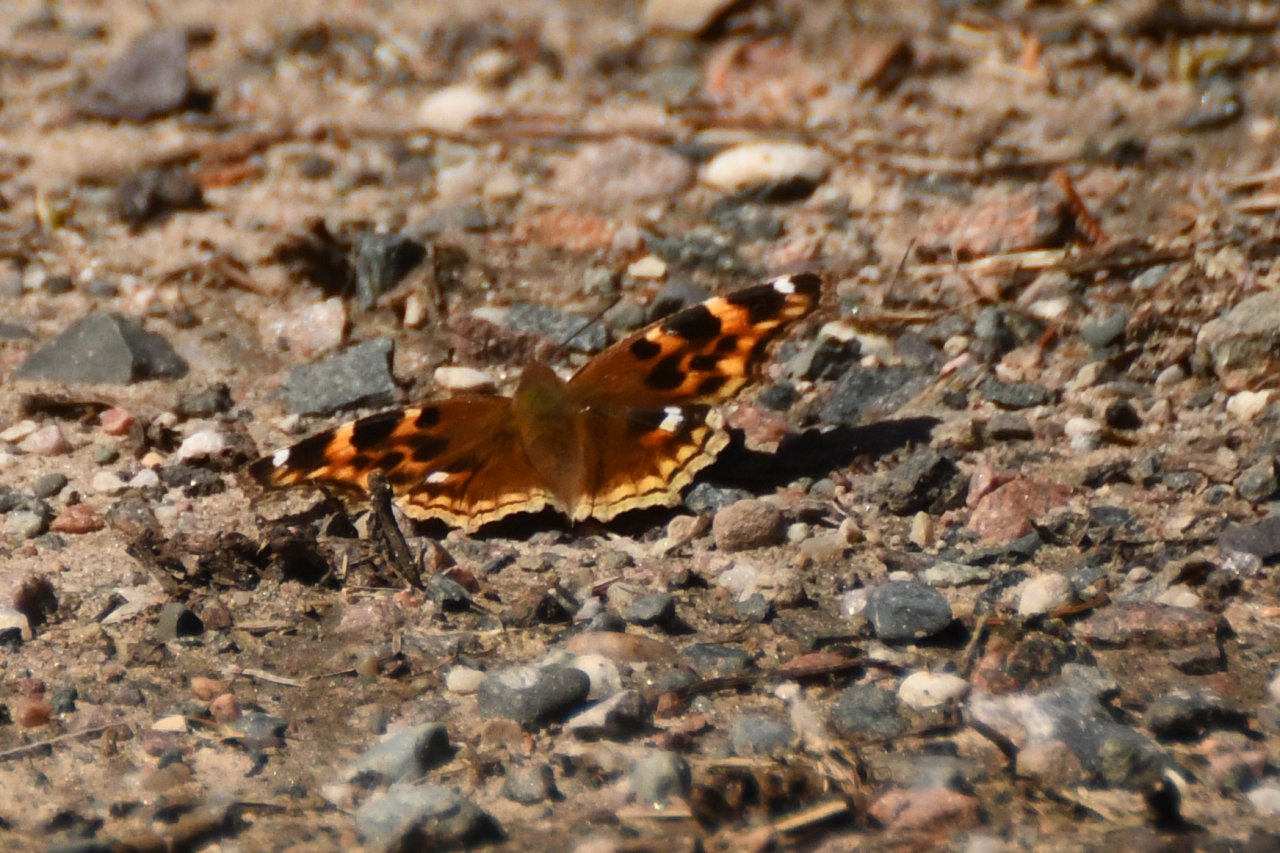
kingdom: Animalia
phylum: Arthropoda
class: Insecta
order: Lepidoptera
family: Nymphalidae
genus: Polygonia
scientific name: Polygonia vaualbum
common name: Compton Tortoiseshell
